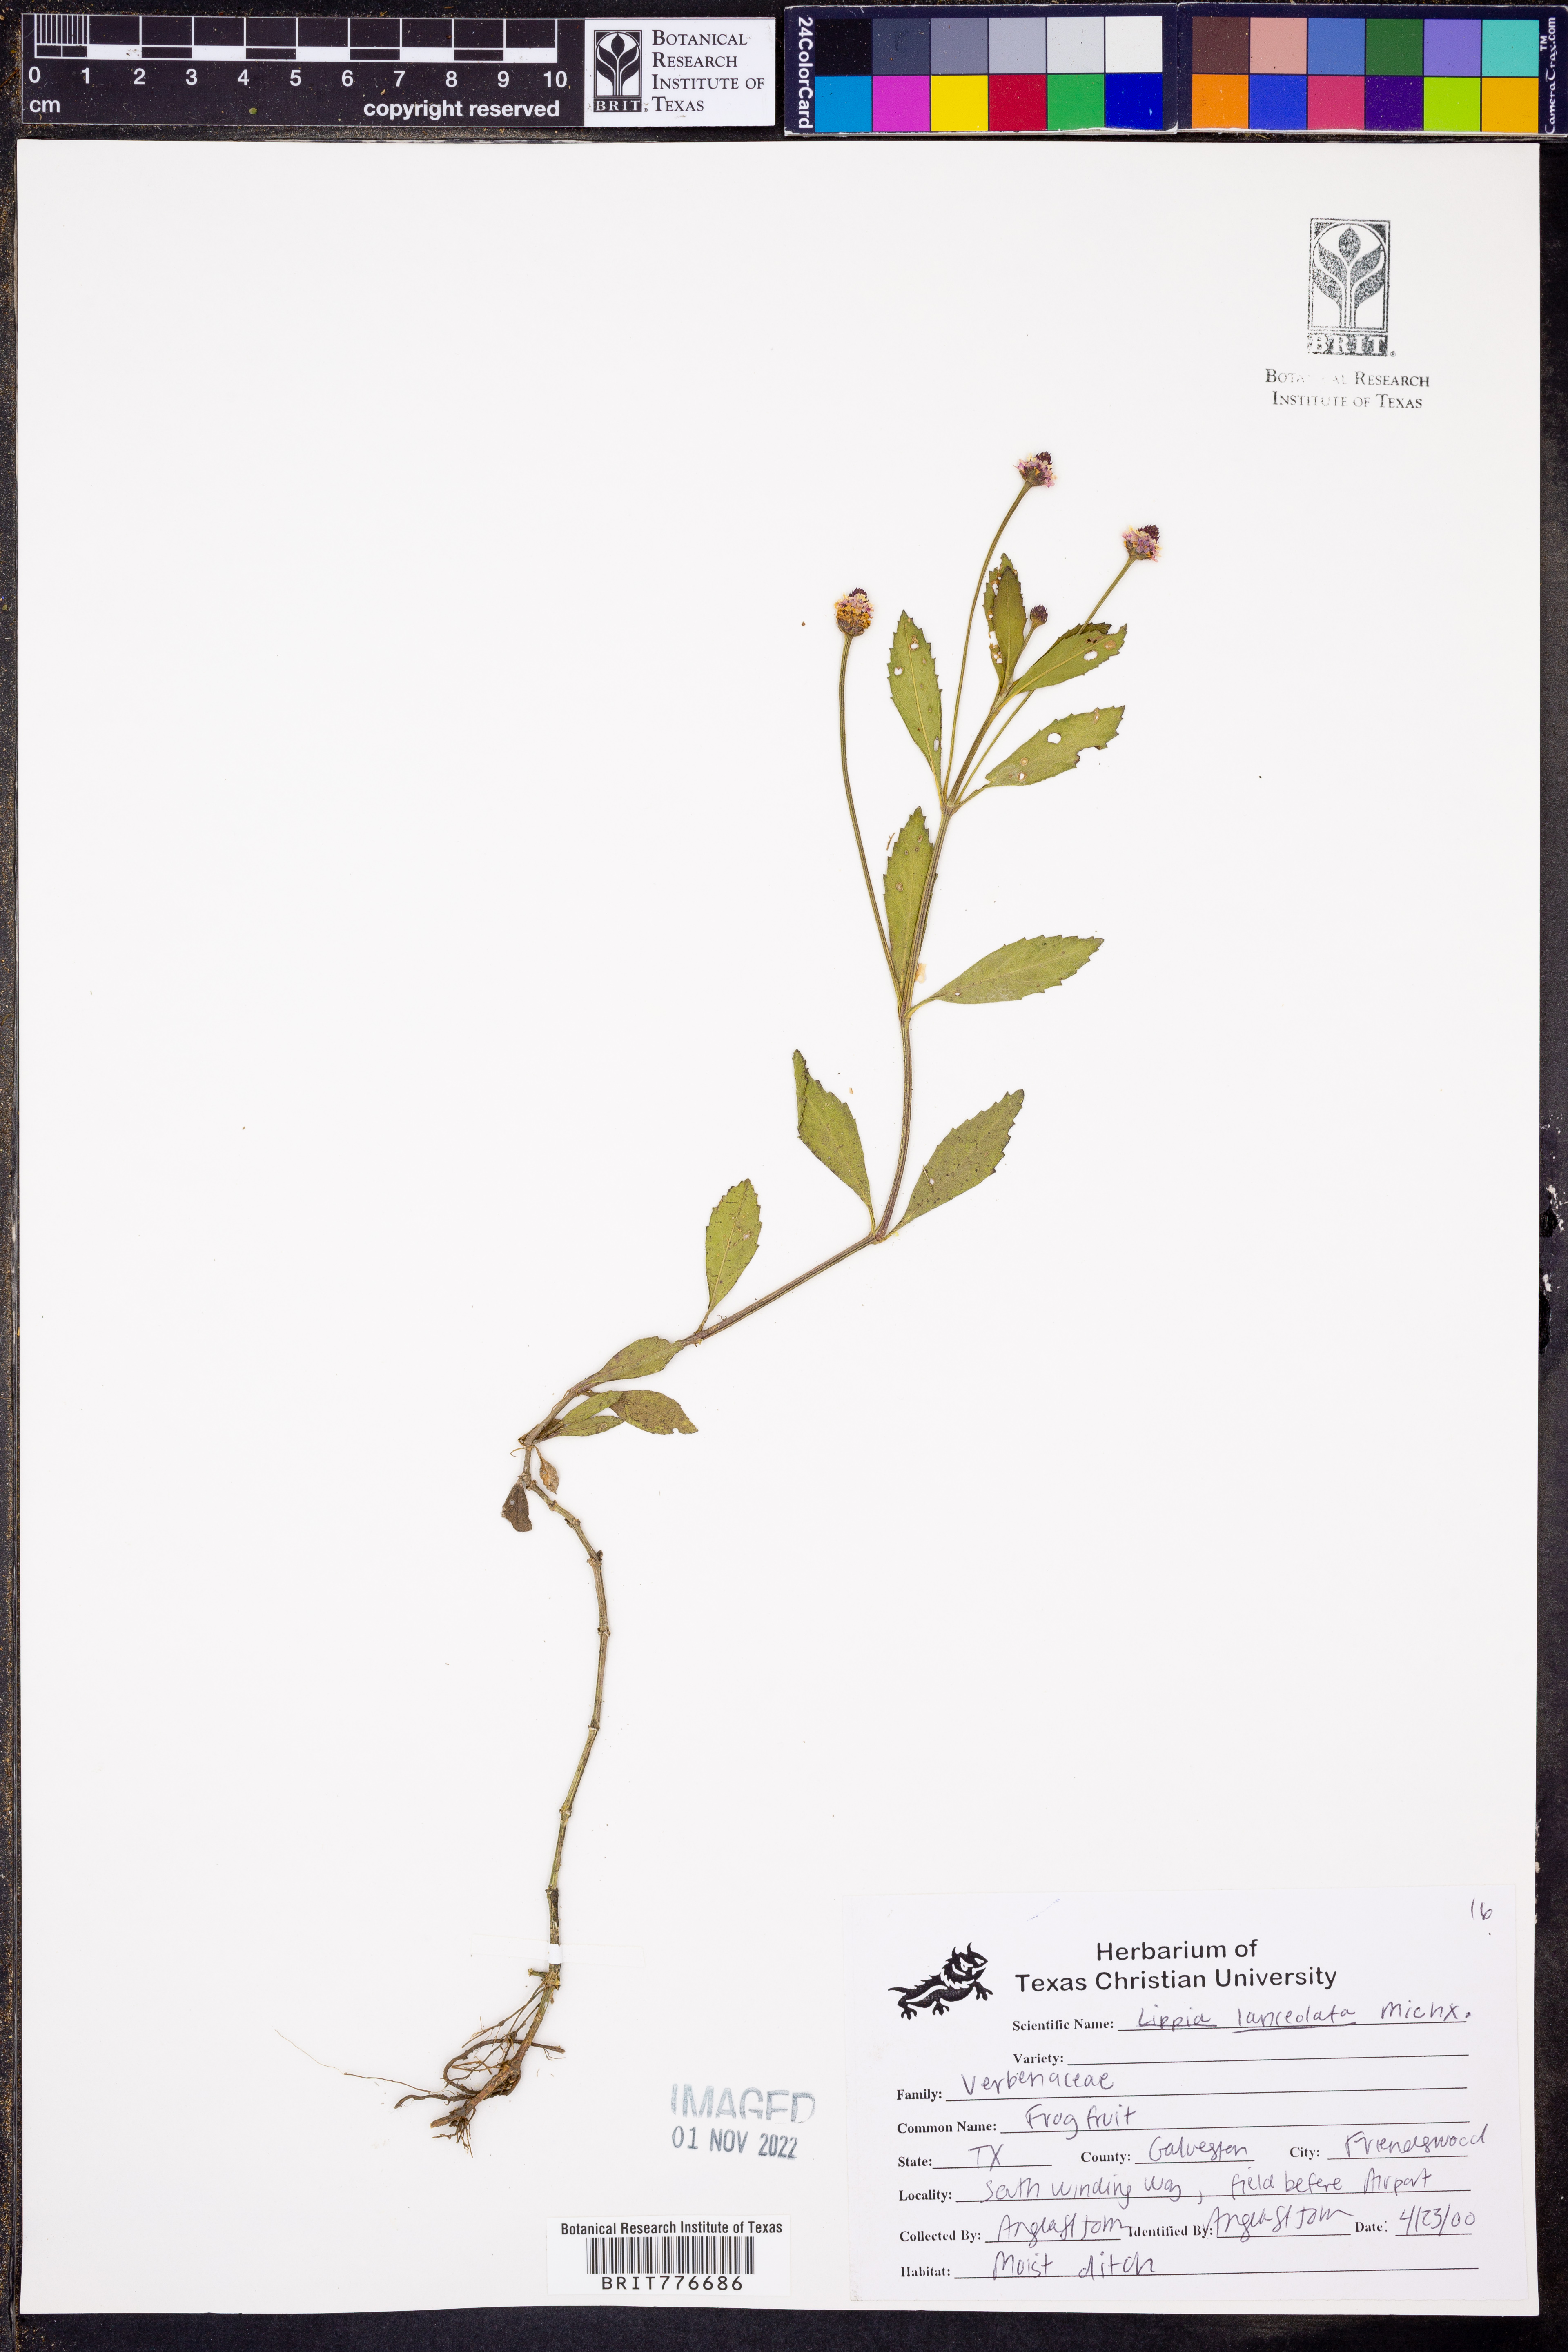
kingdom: Plantae
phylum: Tracheophyta
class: Magnoliopsida
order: Lamiales
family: Verbenaceae
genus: Phyla
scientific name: Phyla lanceolata
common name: Northern fogfruit
